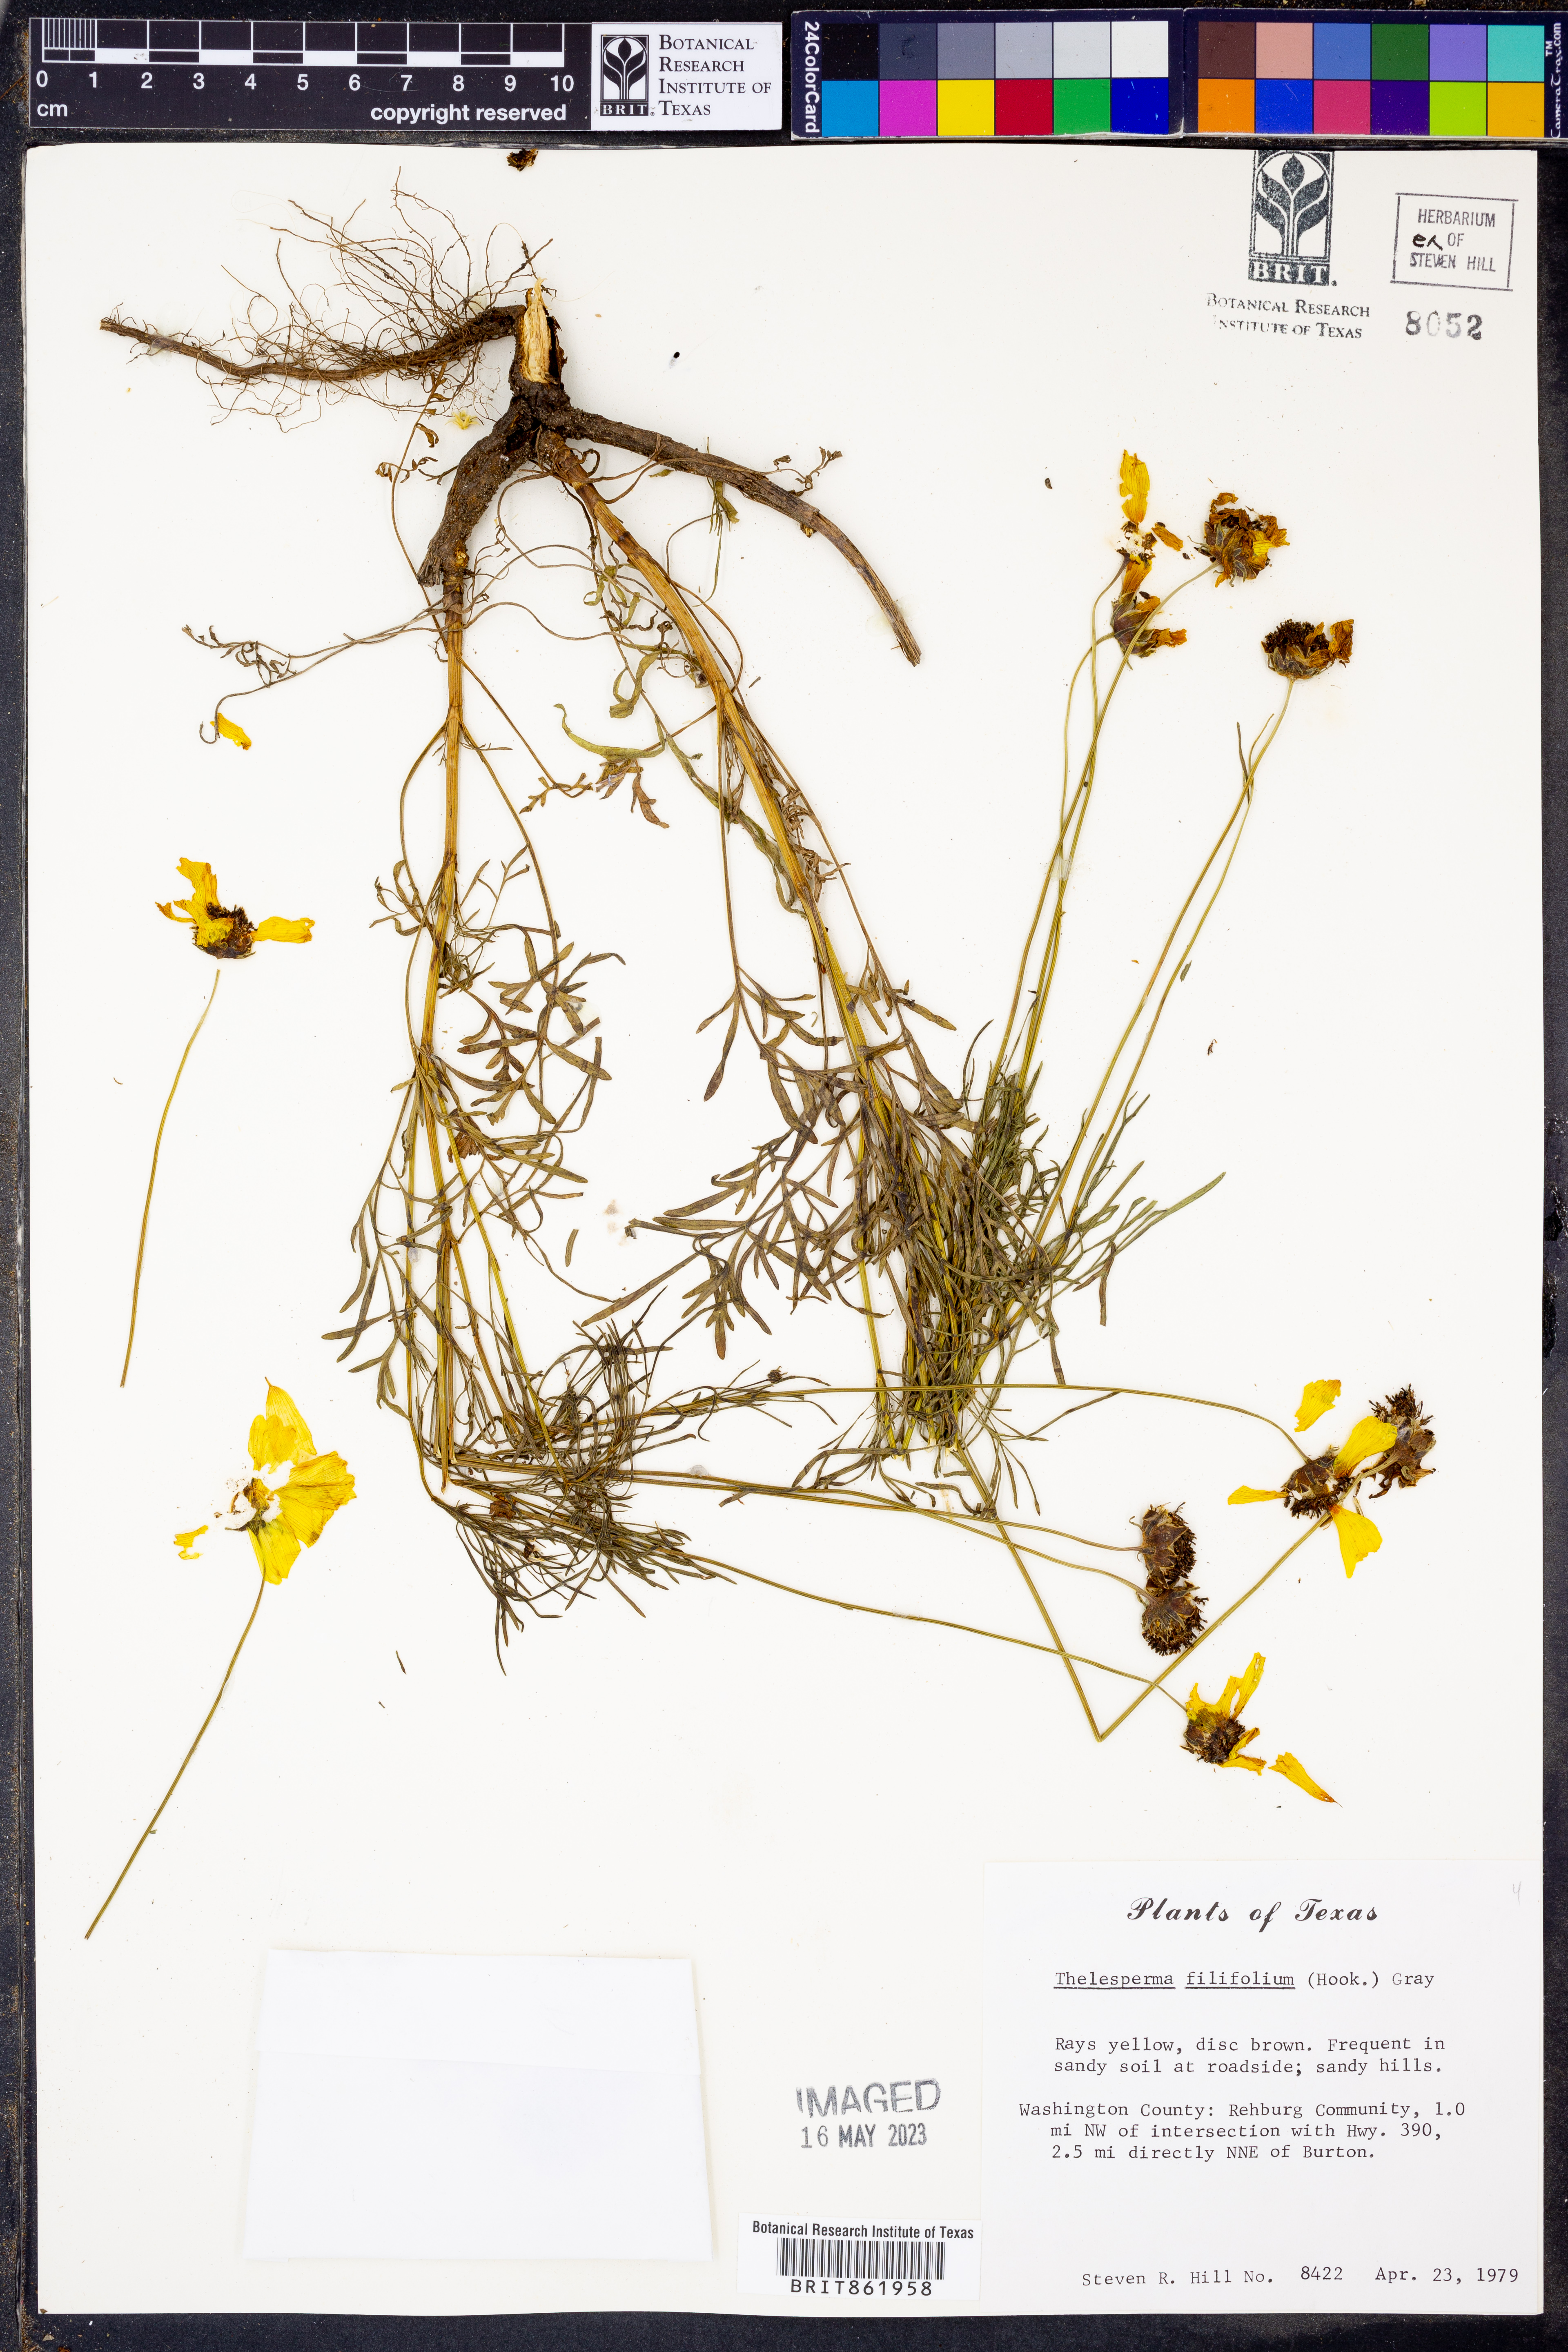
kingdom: Plantae
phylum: Tracheophyta
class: Magnoliopsida
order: Asterales
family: Asteraceae
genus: Thelesperma
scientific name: Thelesperma filifolium
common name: Stiff greenthread
